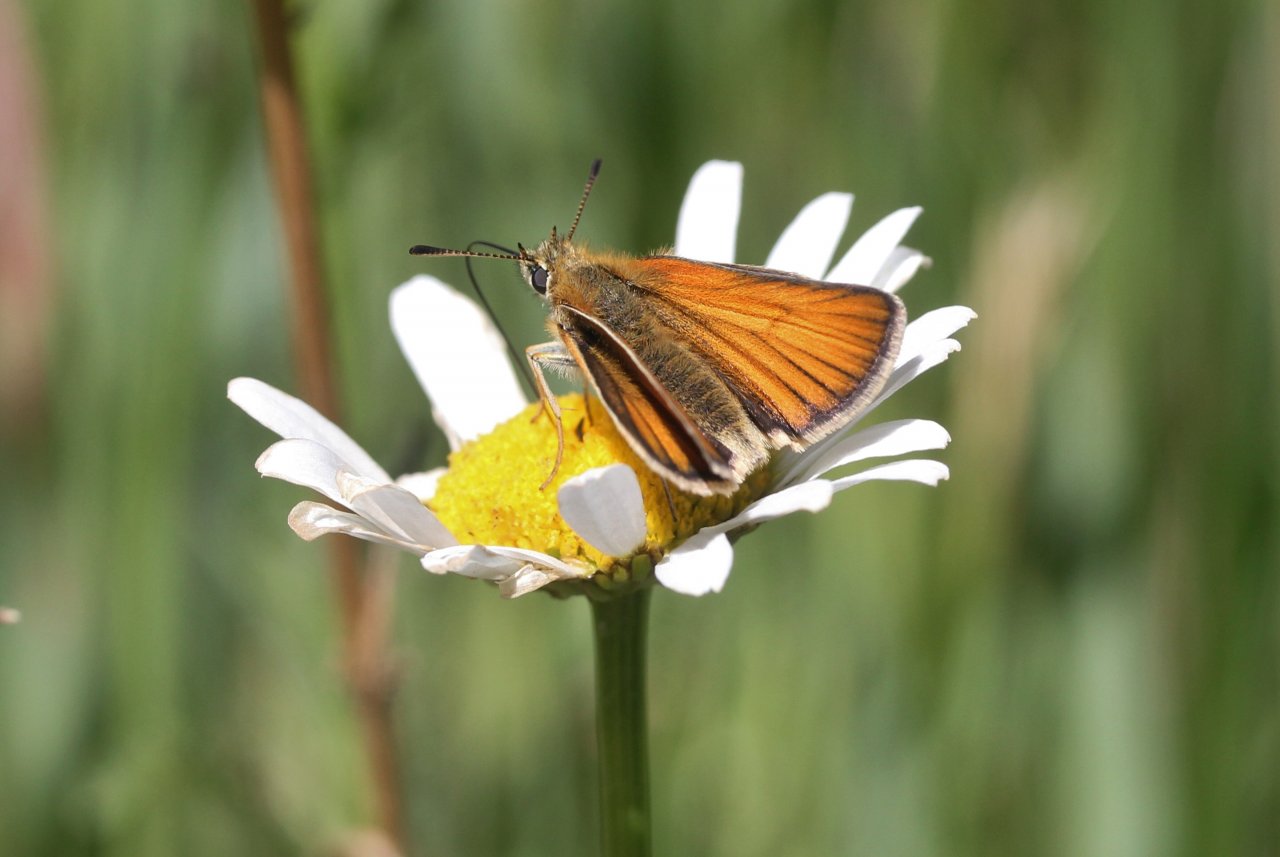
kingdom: Animalia
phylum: Arthropoda
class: Insecta
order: Lepidoptera
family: Hesperiidae
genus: Thymelicus
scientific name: Thymelicus lineola
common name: European Skipper
